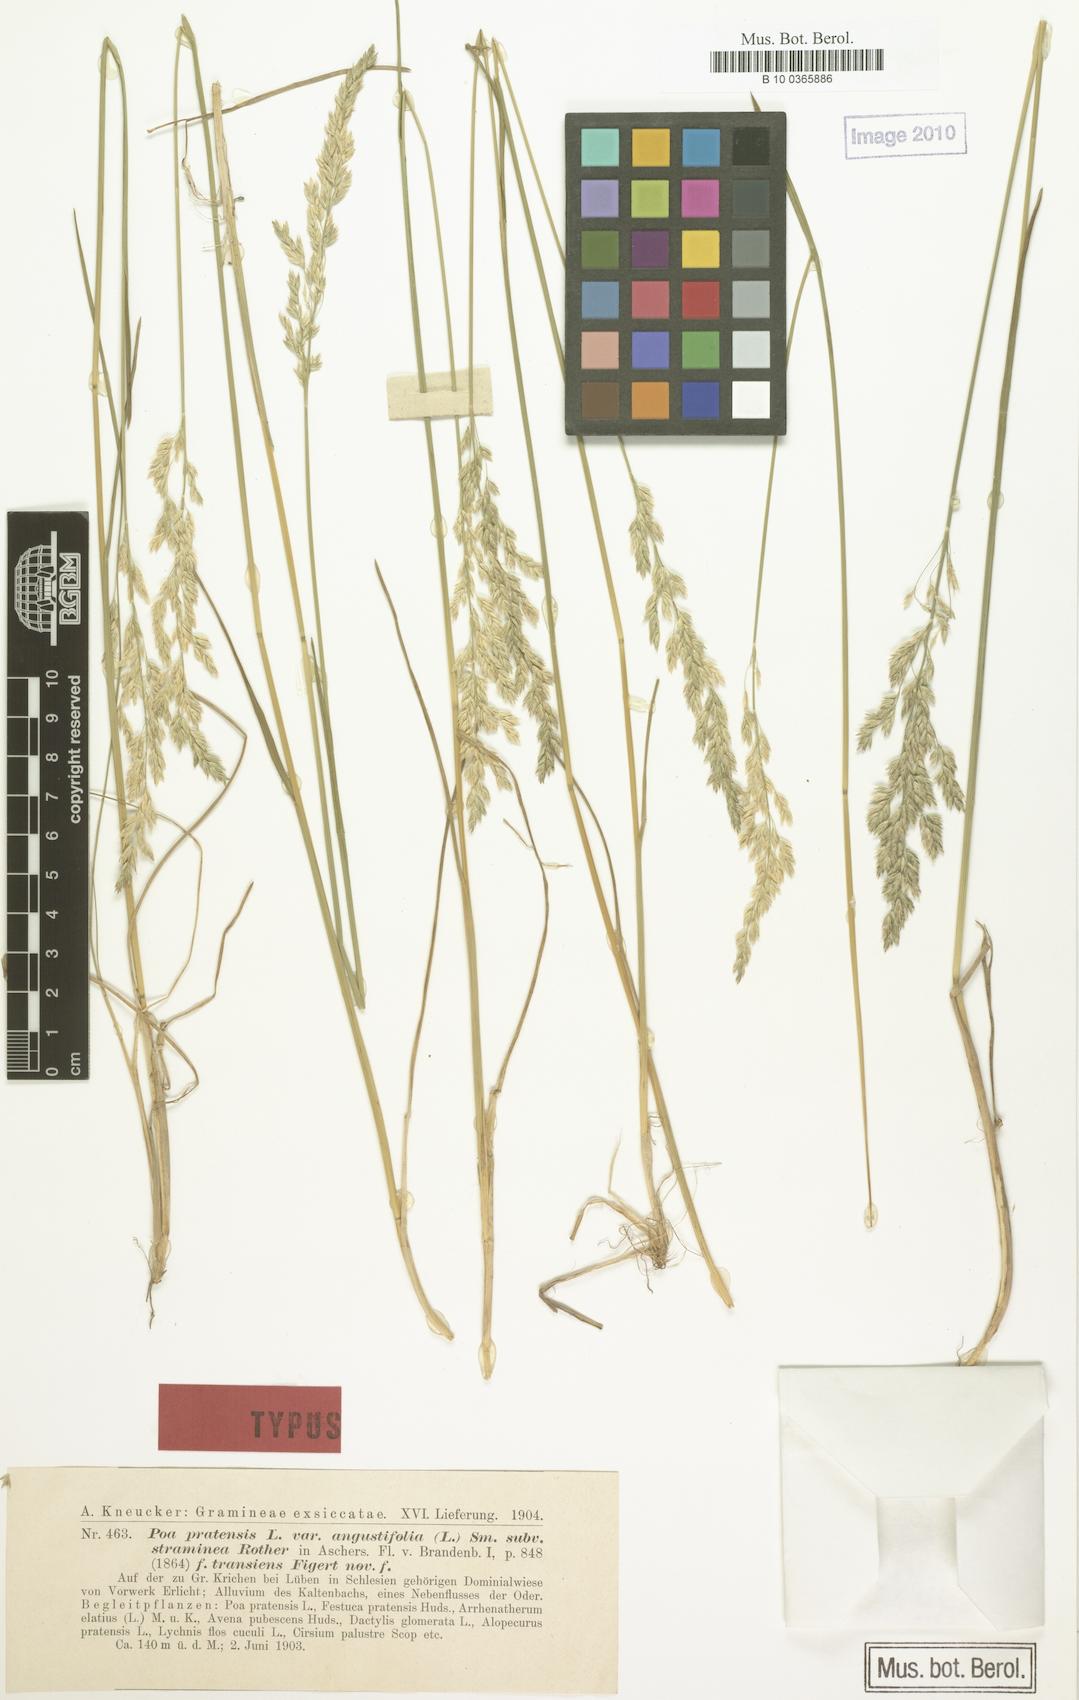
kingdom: Plantae
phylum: Tracheophyta
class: Liliopsida
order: Poales
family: Poaceae
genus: Poa
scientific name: Poa pratensis
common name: Kentucky bluegrass
